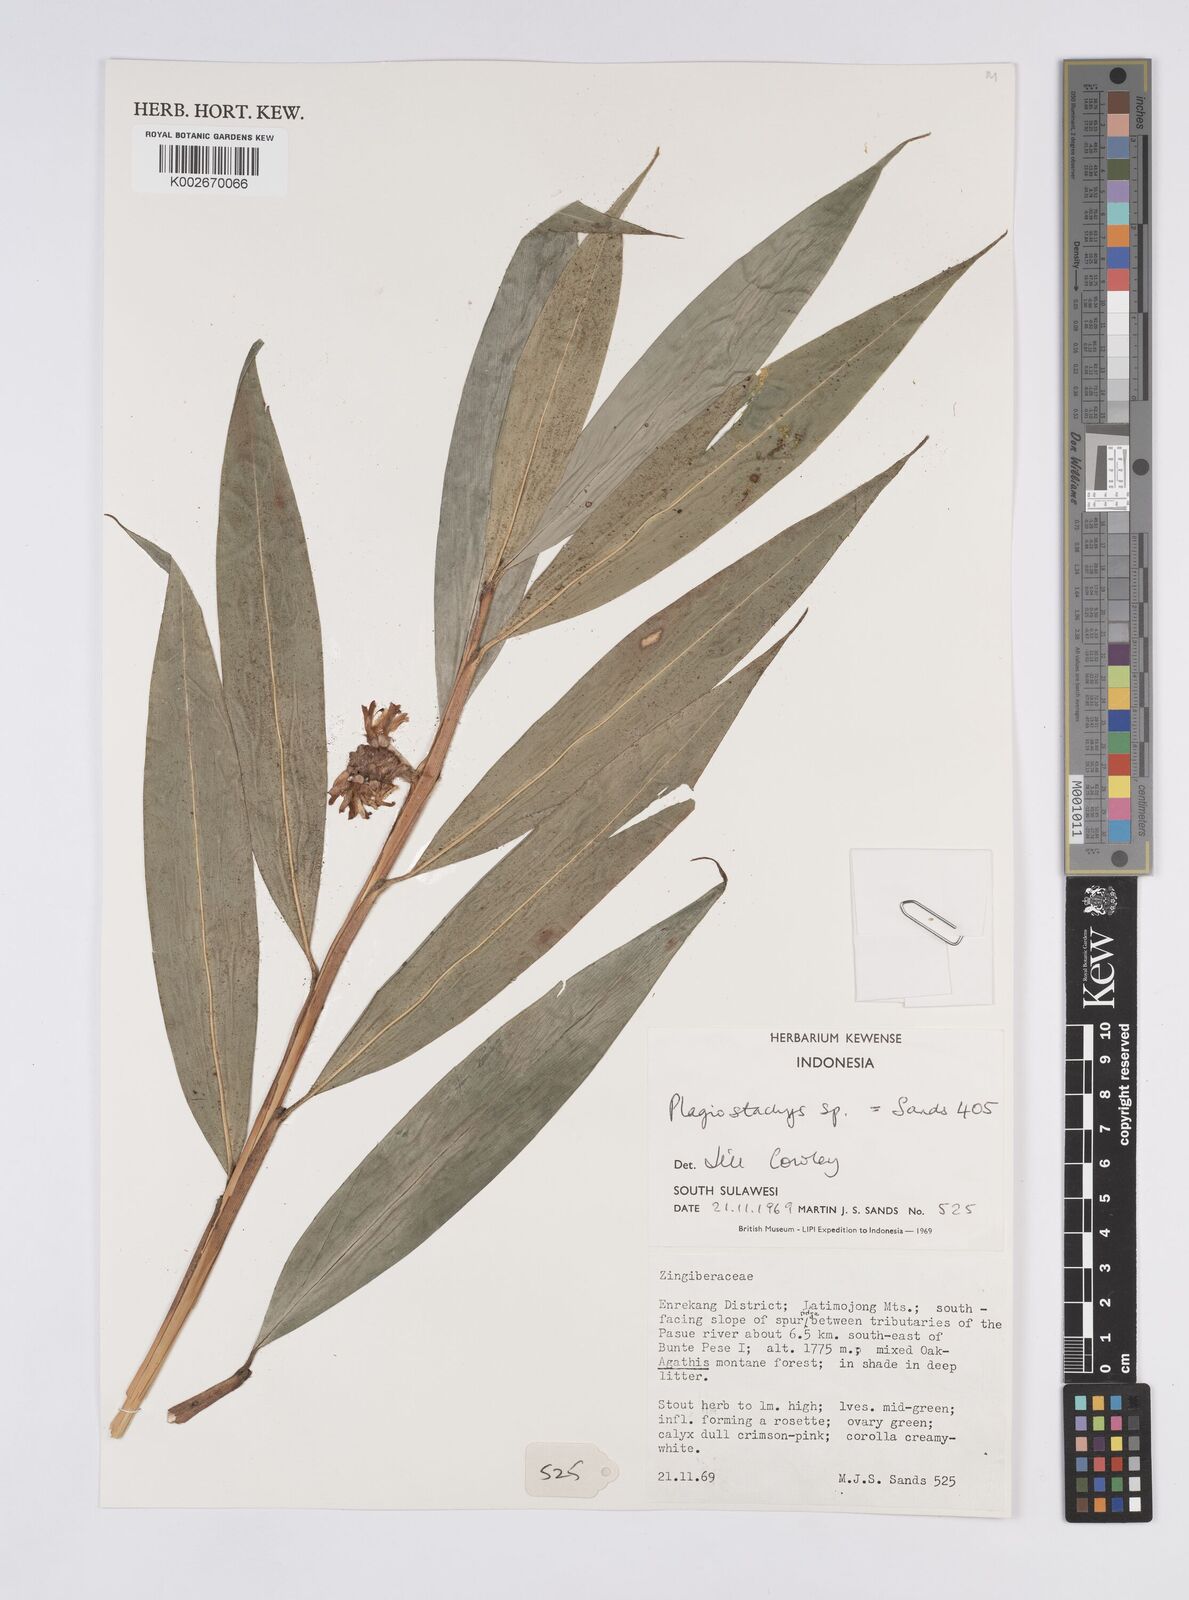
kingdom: Plantae
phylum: Tracheophyta
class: Liliopsida
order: Zingiberales
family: Zingiberaceae
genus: Plagiostachys
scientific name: Plagiostachys
